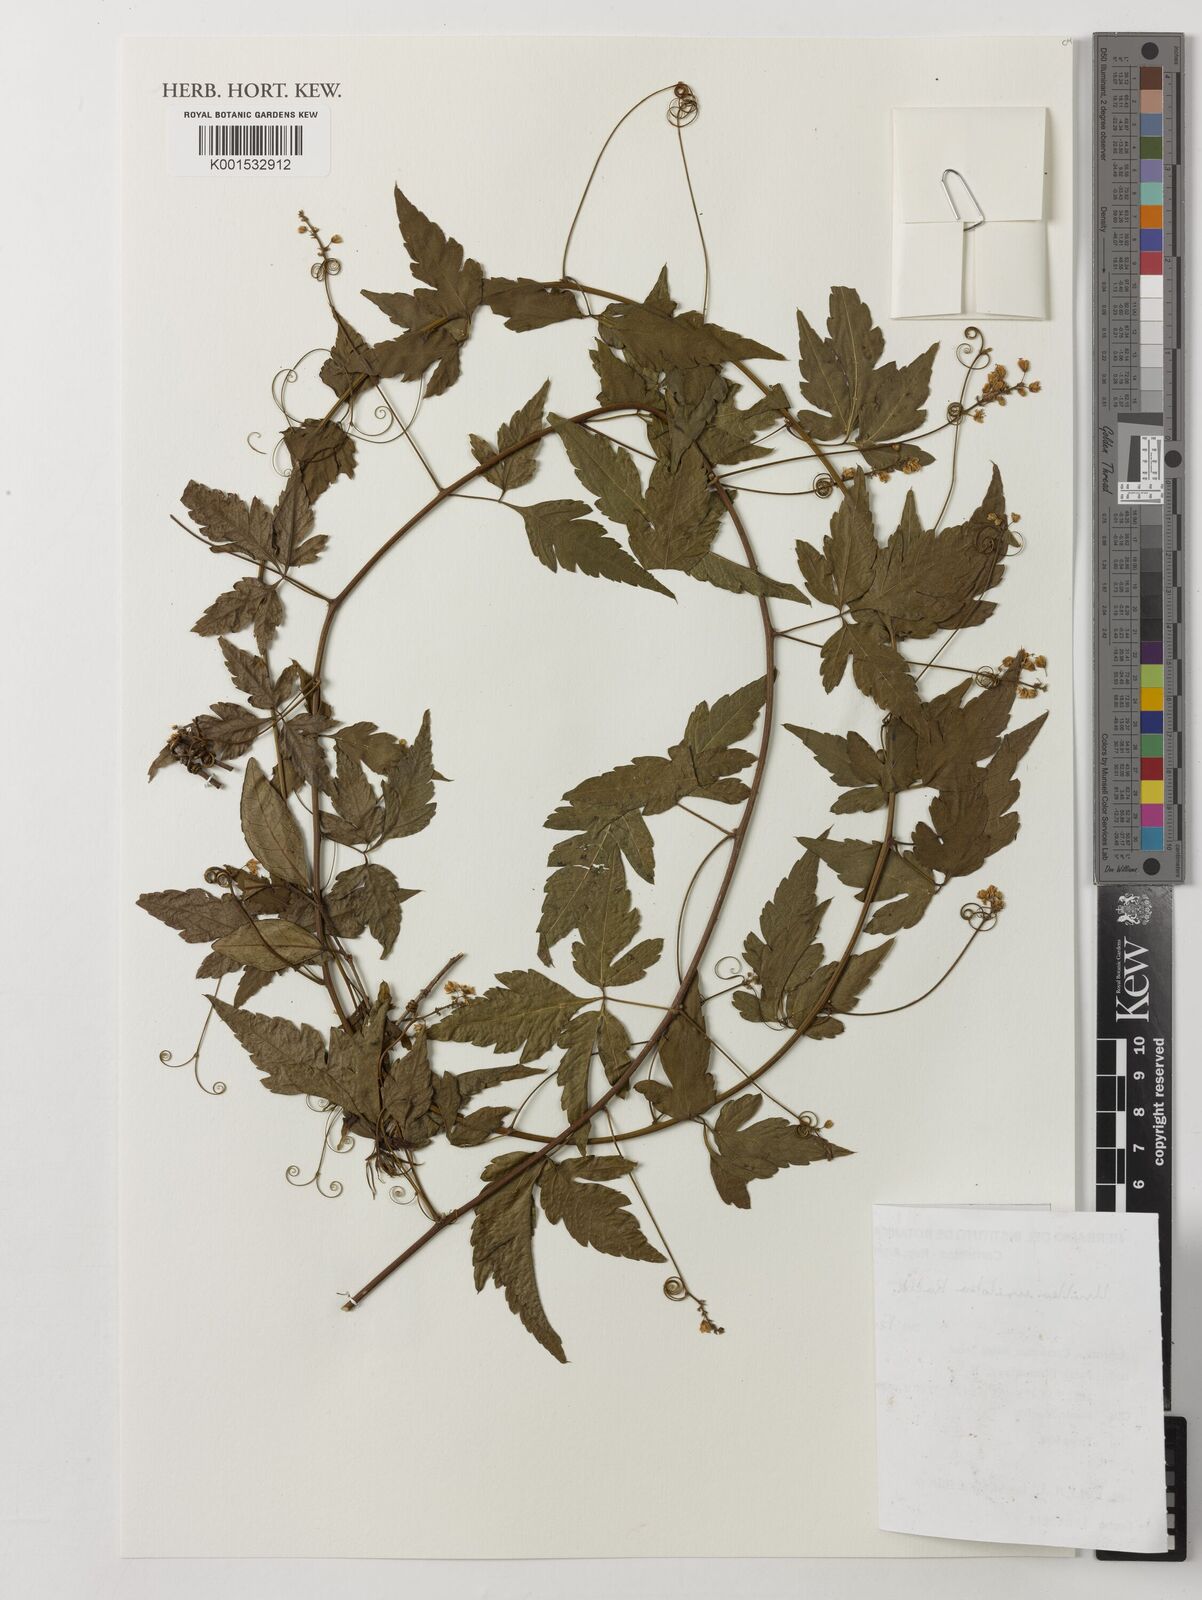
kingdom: Plantae
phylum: Tracheophyta
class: Magnoliopsida
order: Sapindales
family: Sapindaceae
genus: Urvillea
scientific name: Urvillea uniloba
